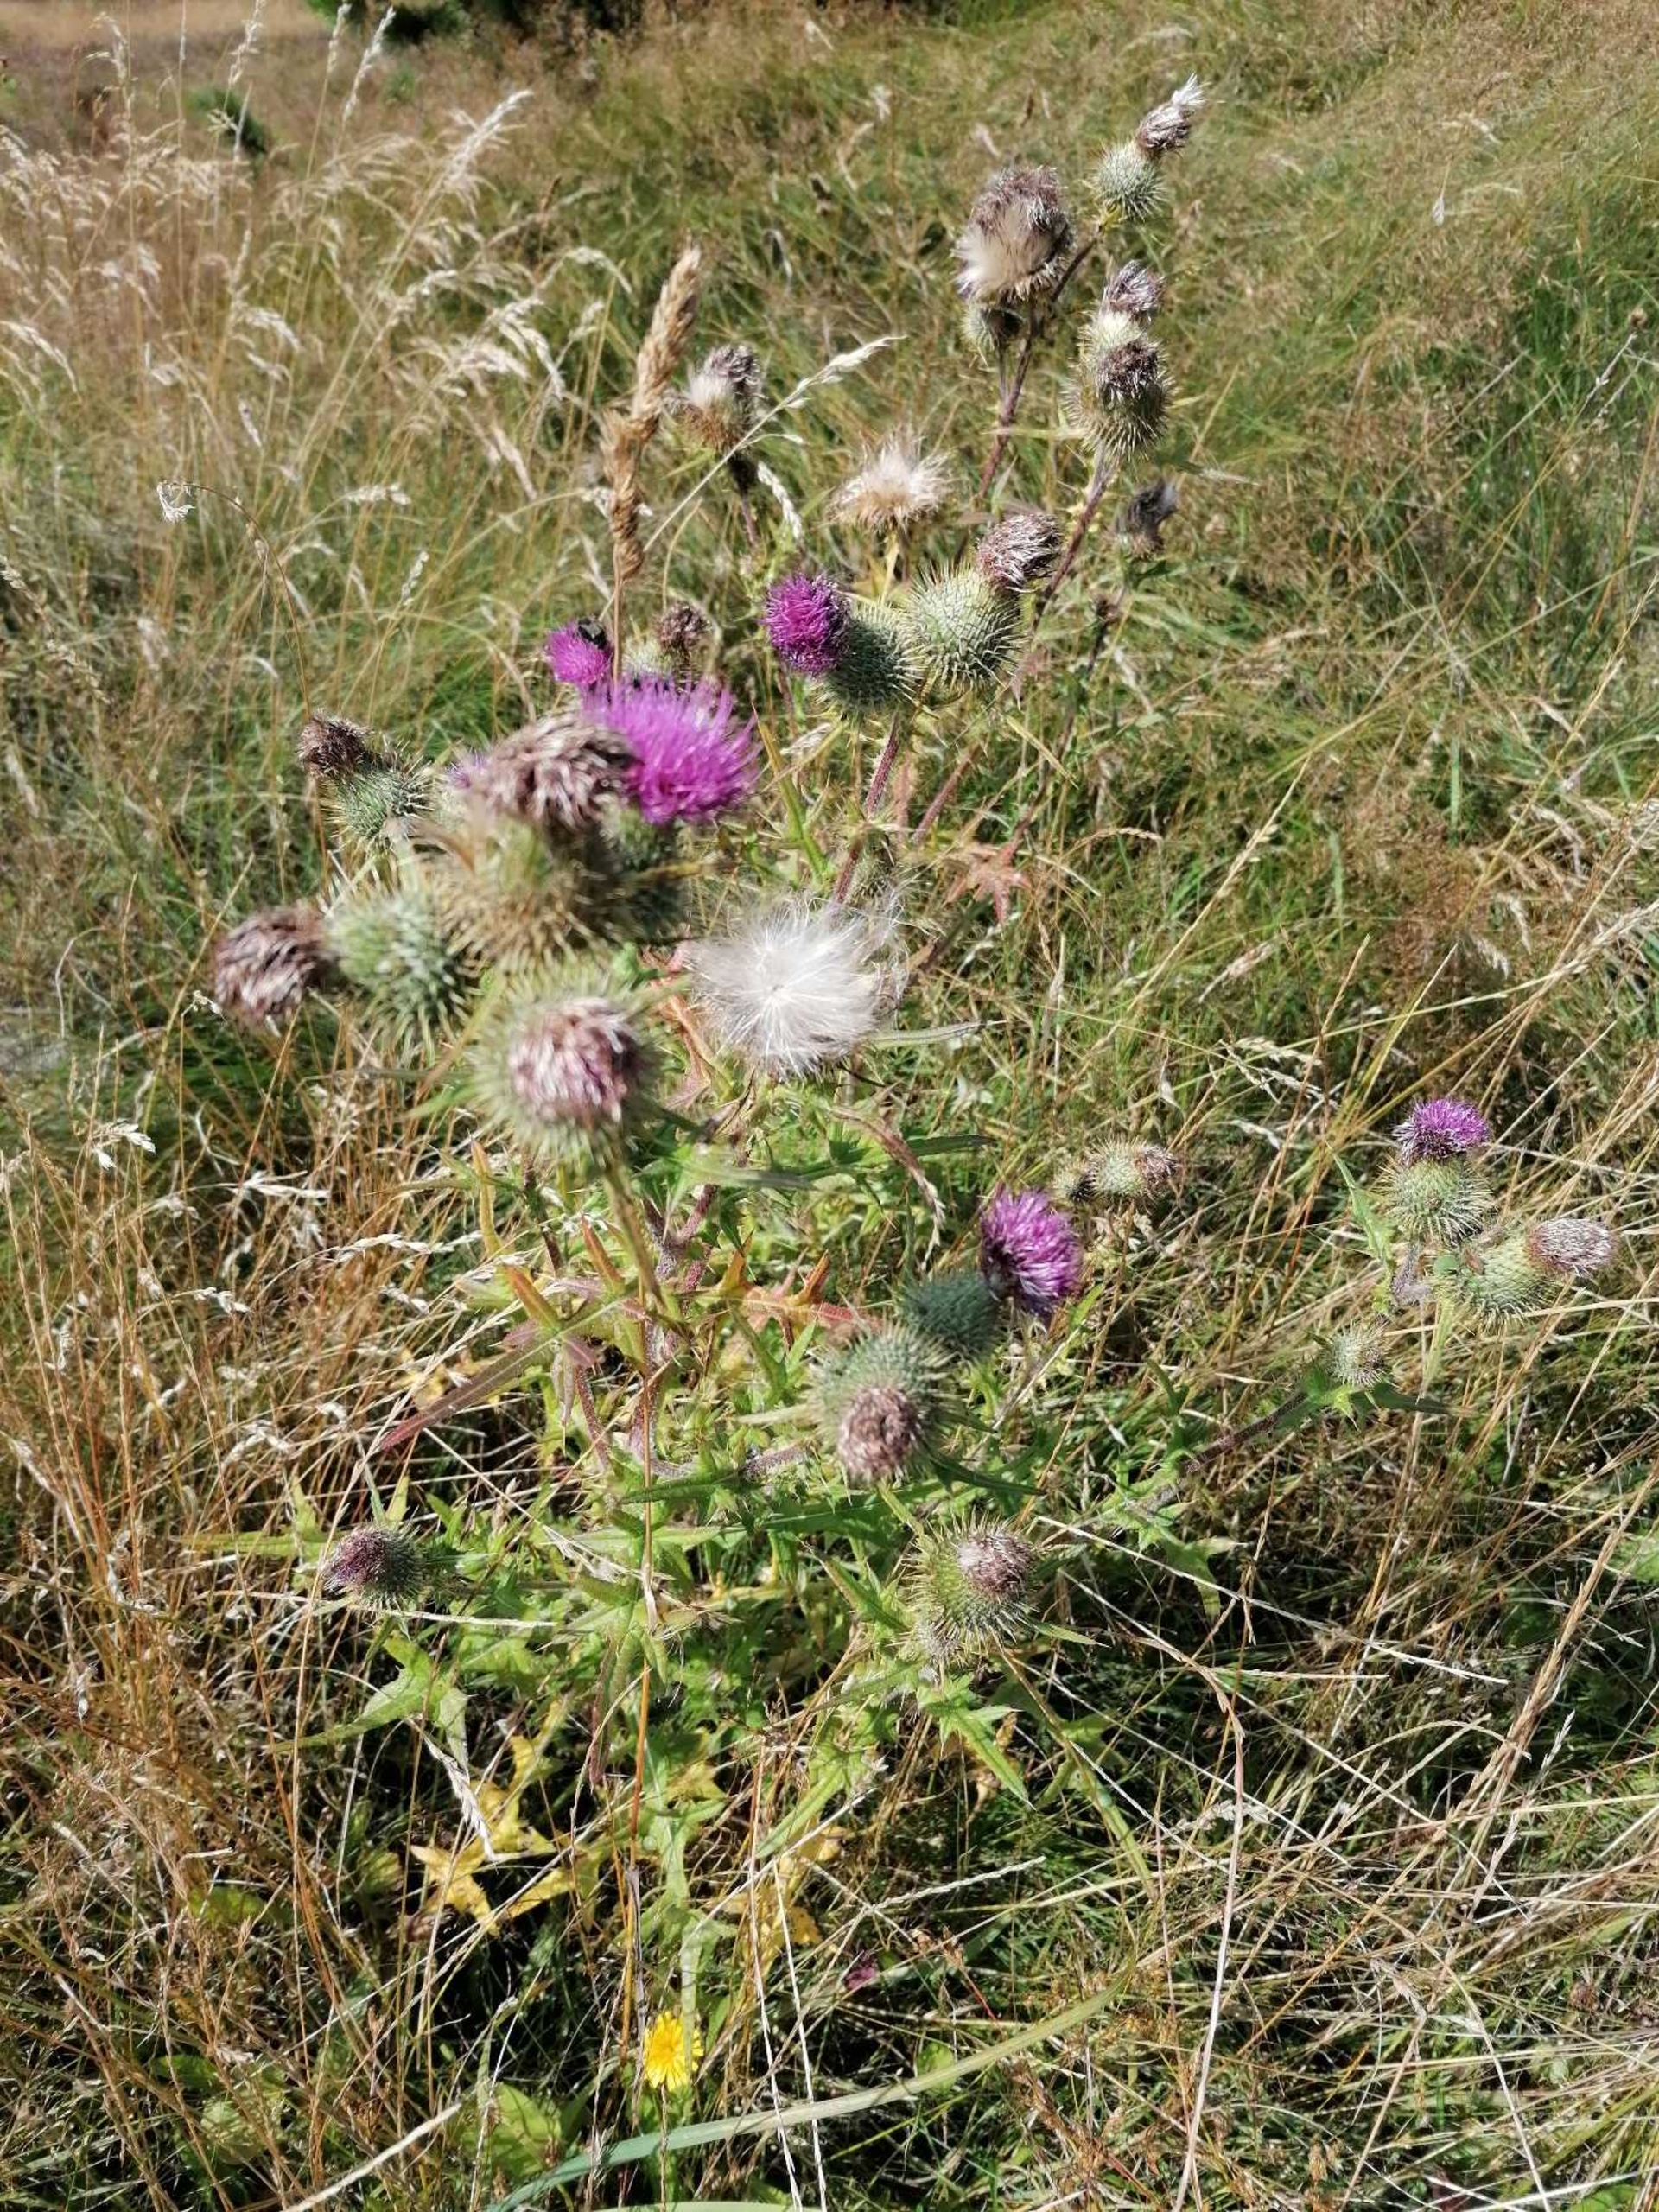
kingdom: Plantae
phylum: Tracheophyta
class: Magnoliopsida
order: Asterales
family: Asteraceae
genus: Cirsium
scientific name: Cirsium vulgare
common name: Horse-tidsel
